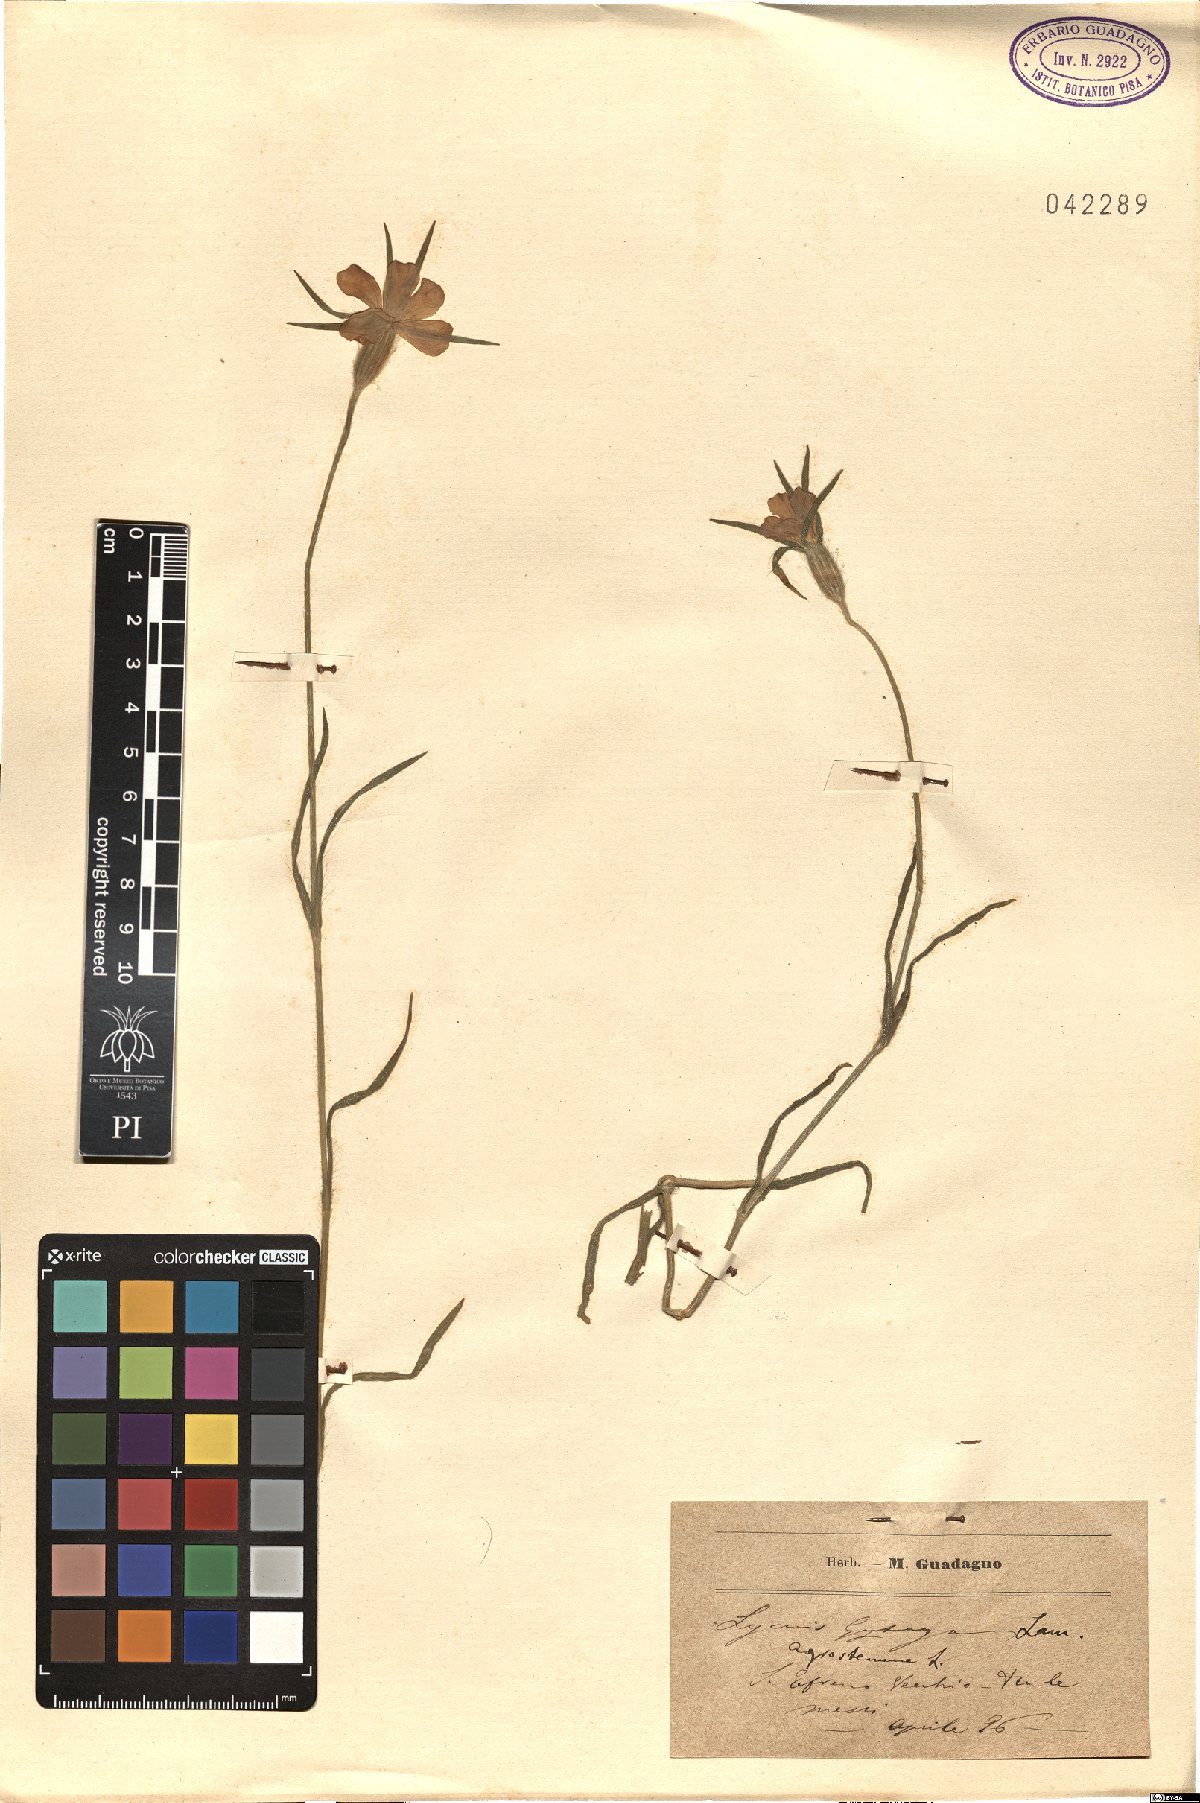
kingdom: Plantae
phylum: Tracheophyta
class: Magnoliopsida
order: Caryophyllales
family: Caryophyllaceae
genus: Agrostemma
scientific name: Agrostemma githago
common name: Common corncockle
